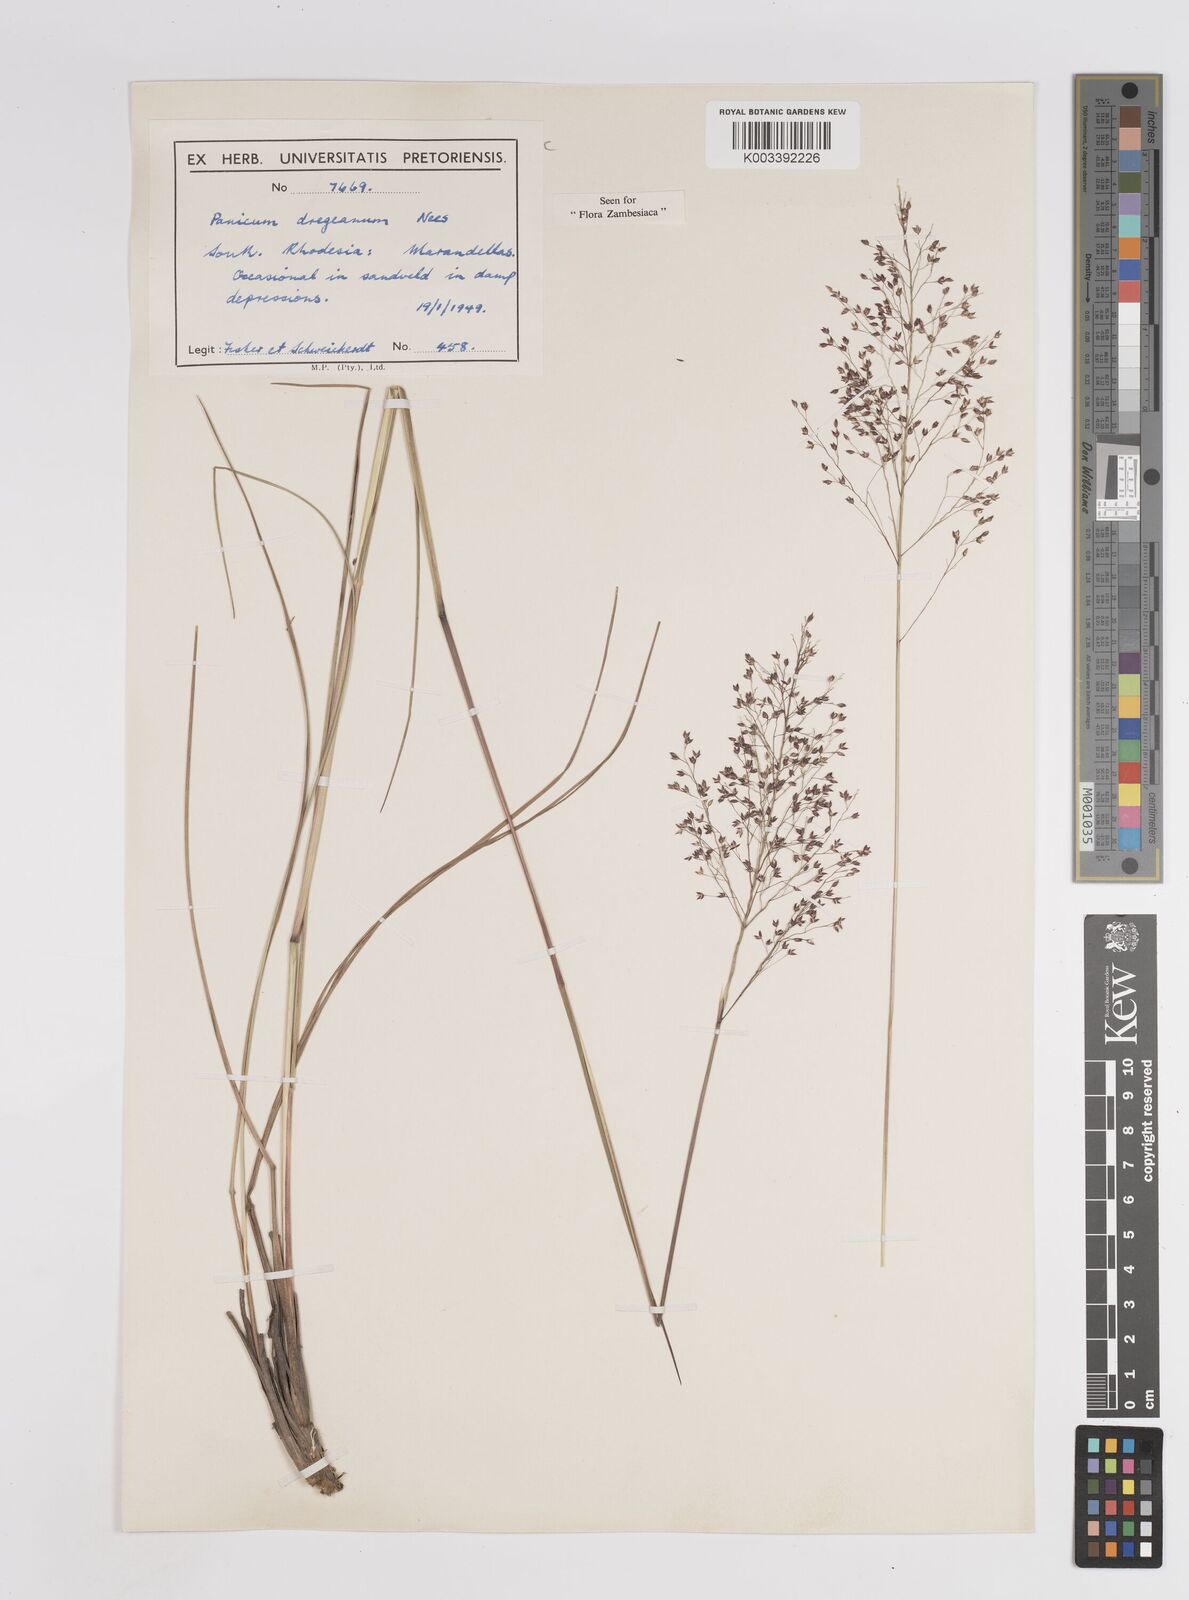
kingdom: Plantae
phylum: Tracheophyta
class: Liliopsida
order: Poales
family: Poaceae
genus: Panicum
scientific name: Panicum dregeanum
